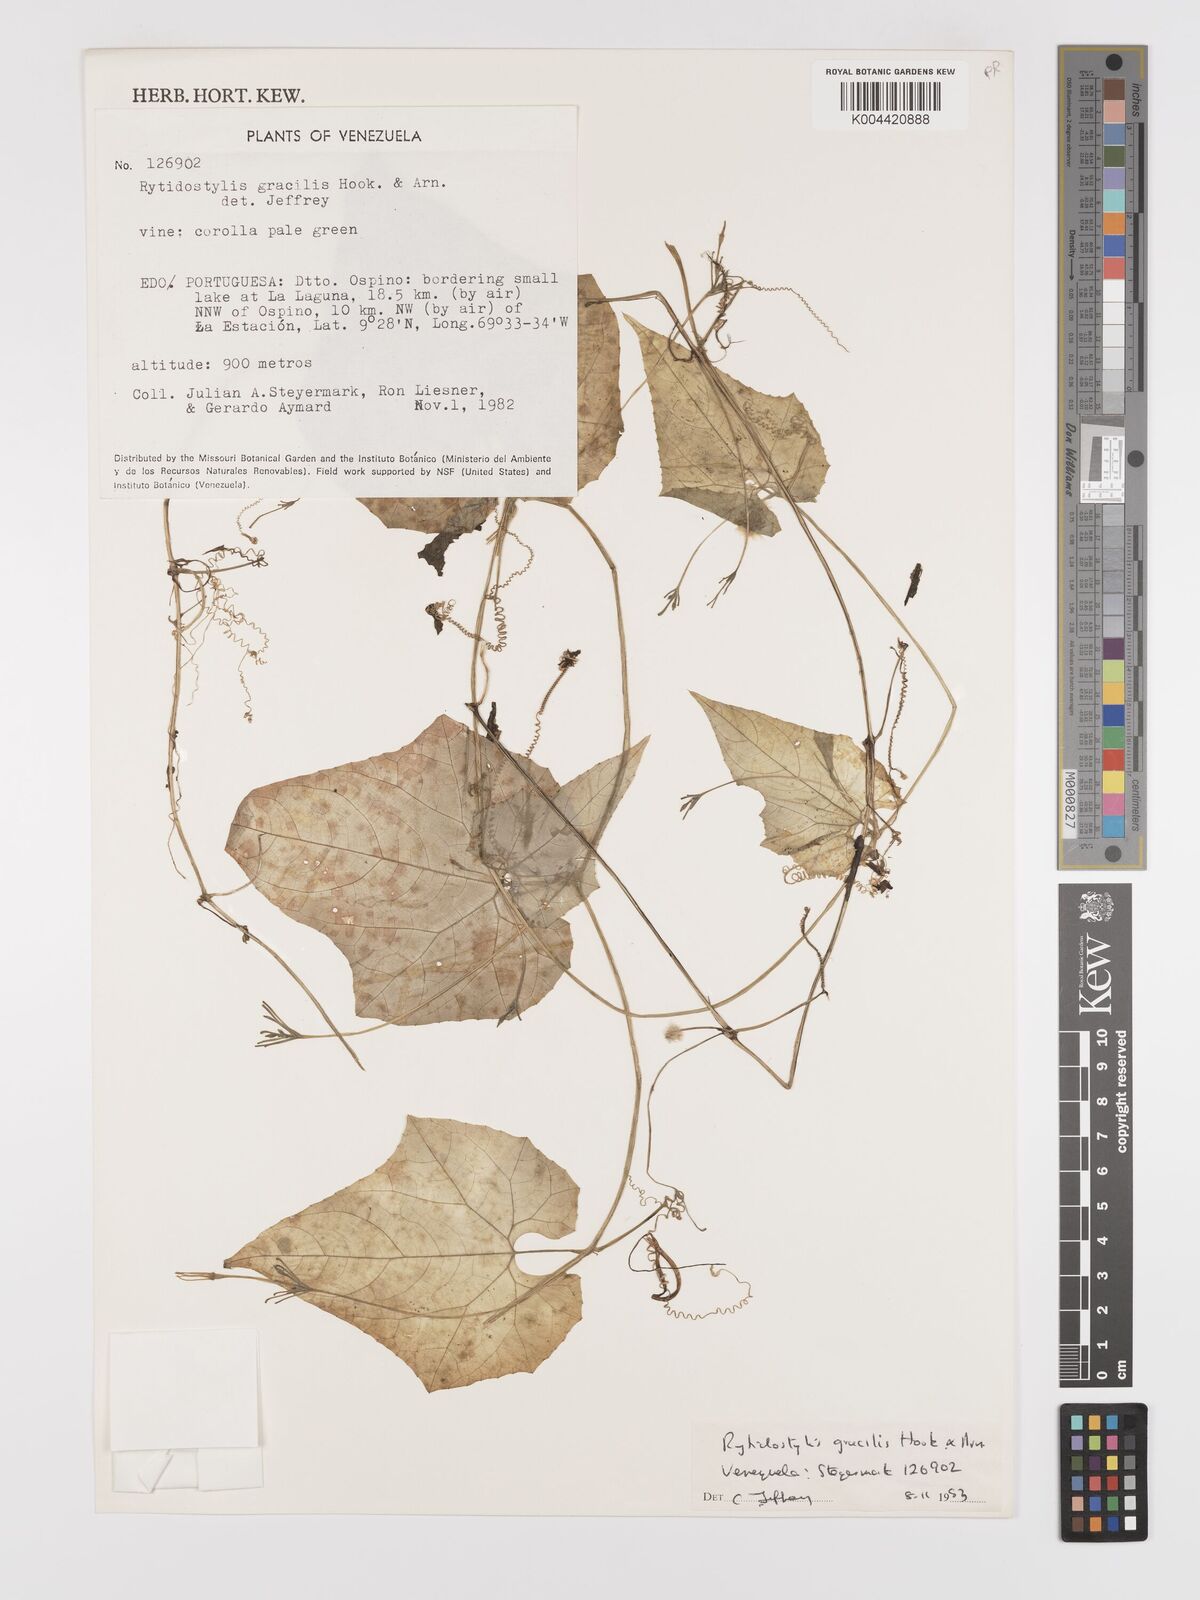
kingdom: Plantae
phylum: Tracheophyta
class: Magnoliopsida
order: Cucurbitales
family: Cucurbitaceae
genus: Cyclanthera
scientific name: Cyclanthera filiformis
